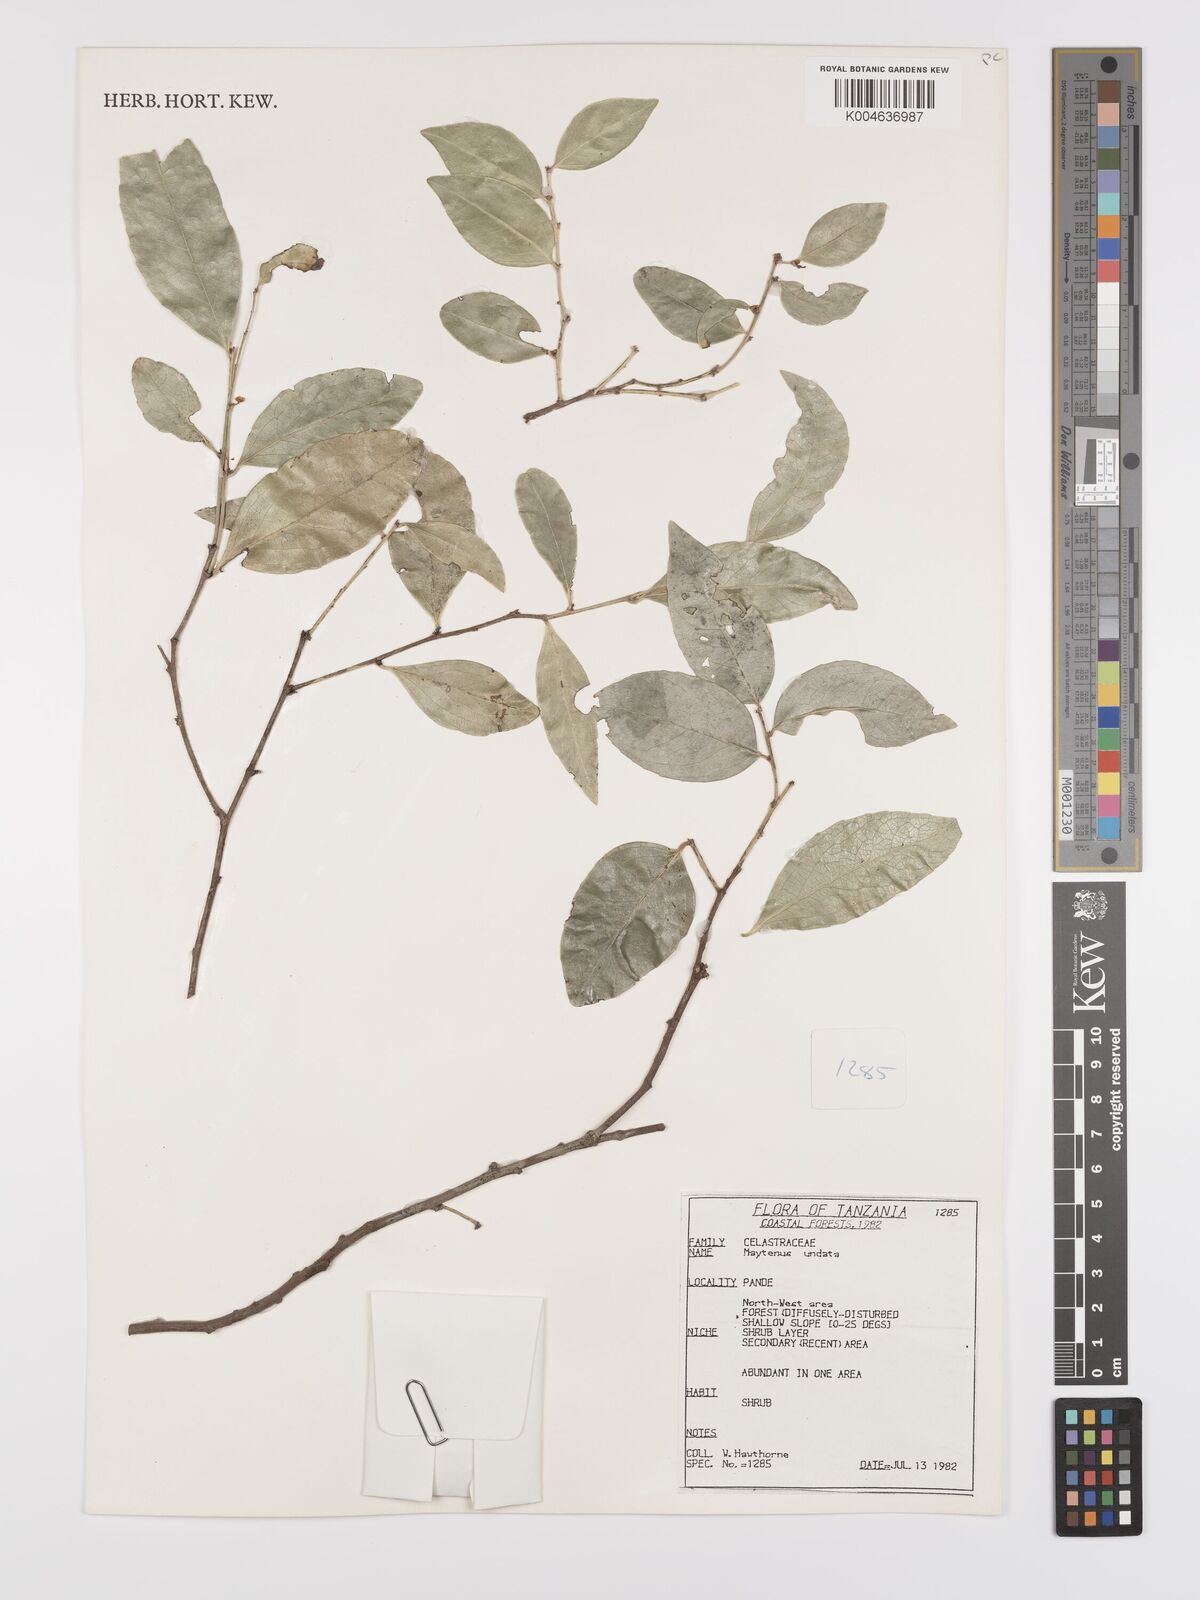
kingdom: Plantae
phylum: Tracheophyta
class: Magnoliopsida
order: Celastrales
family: Celastraceae
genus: Gymnosporia
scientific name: Gymnosporia undata
